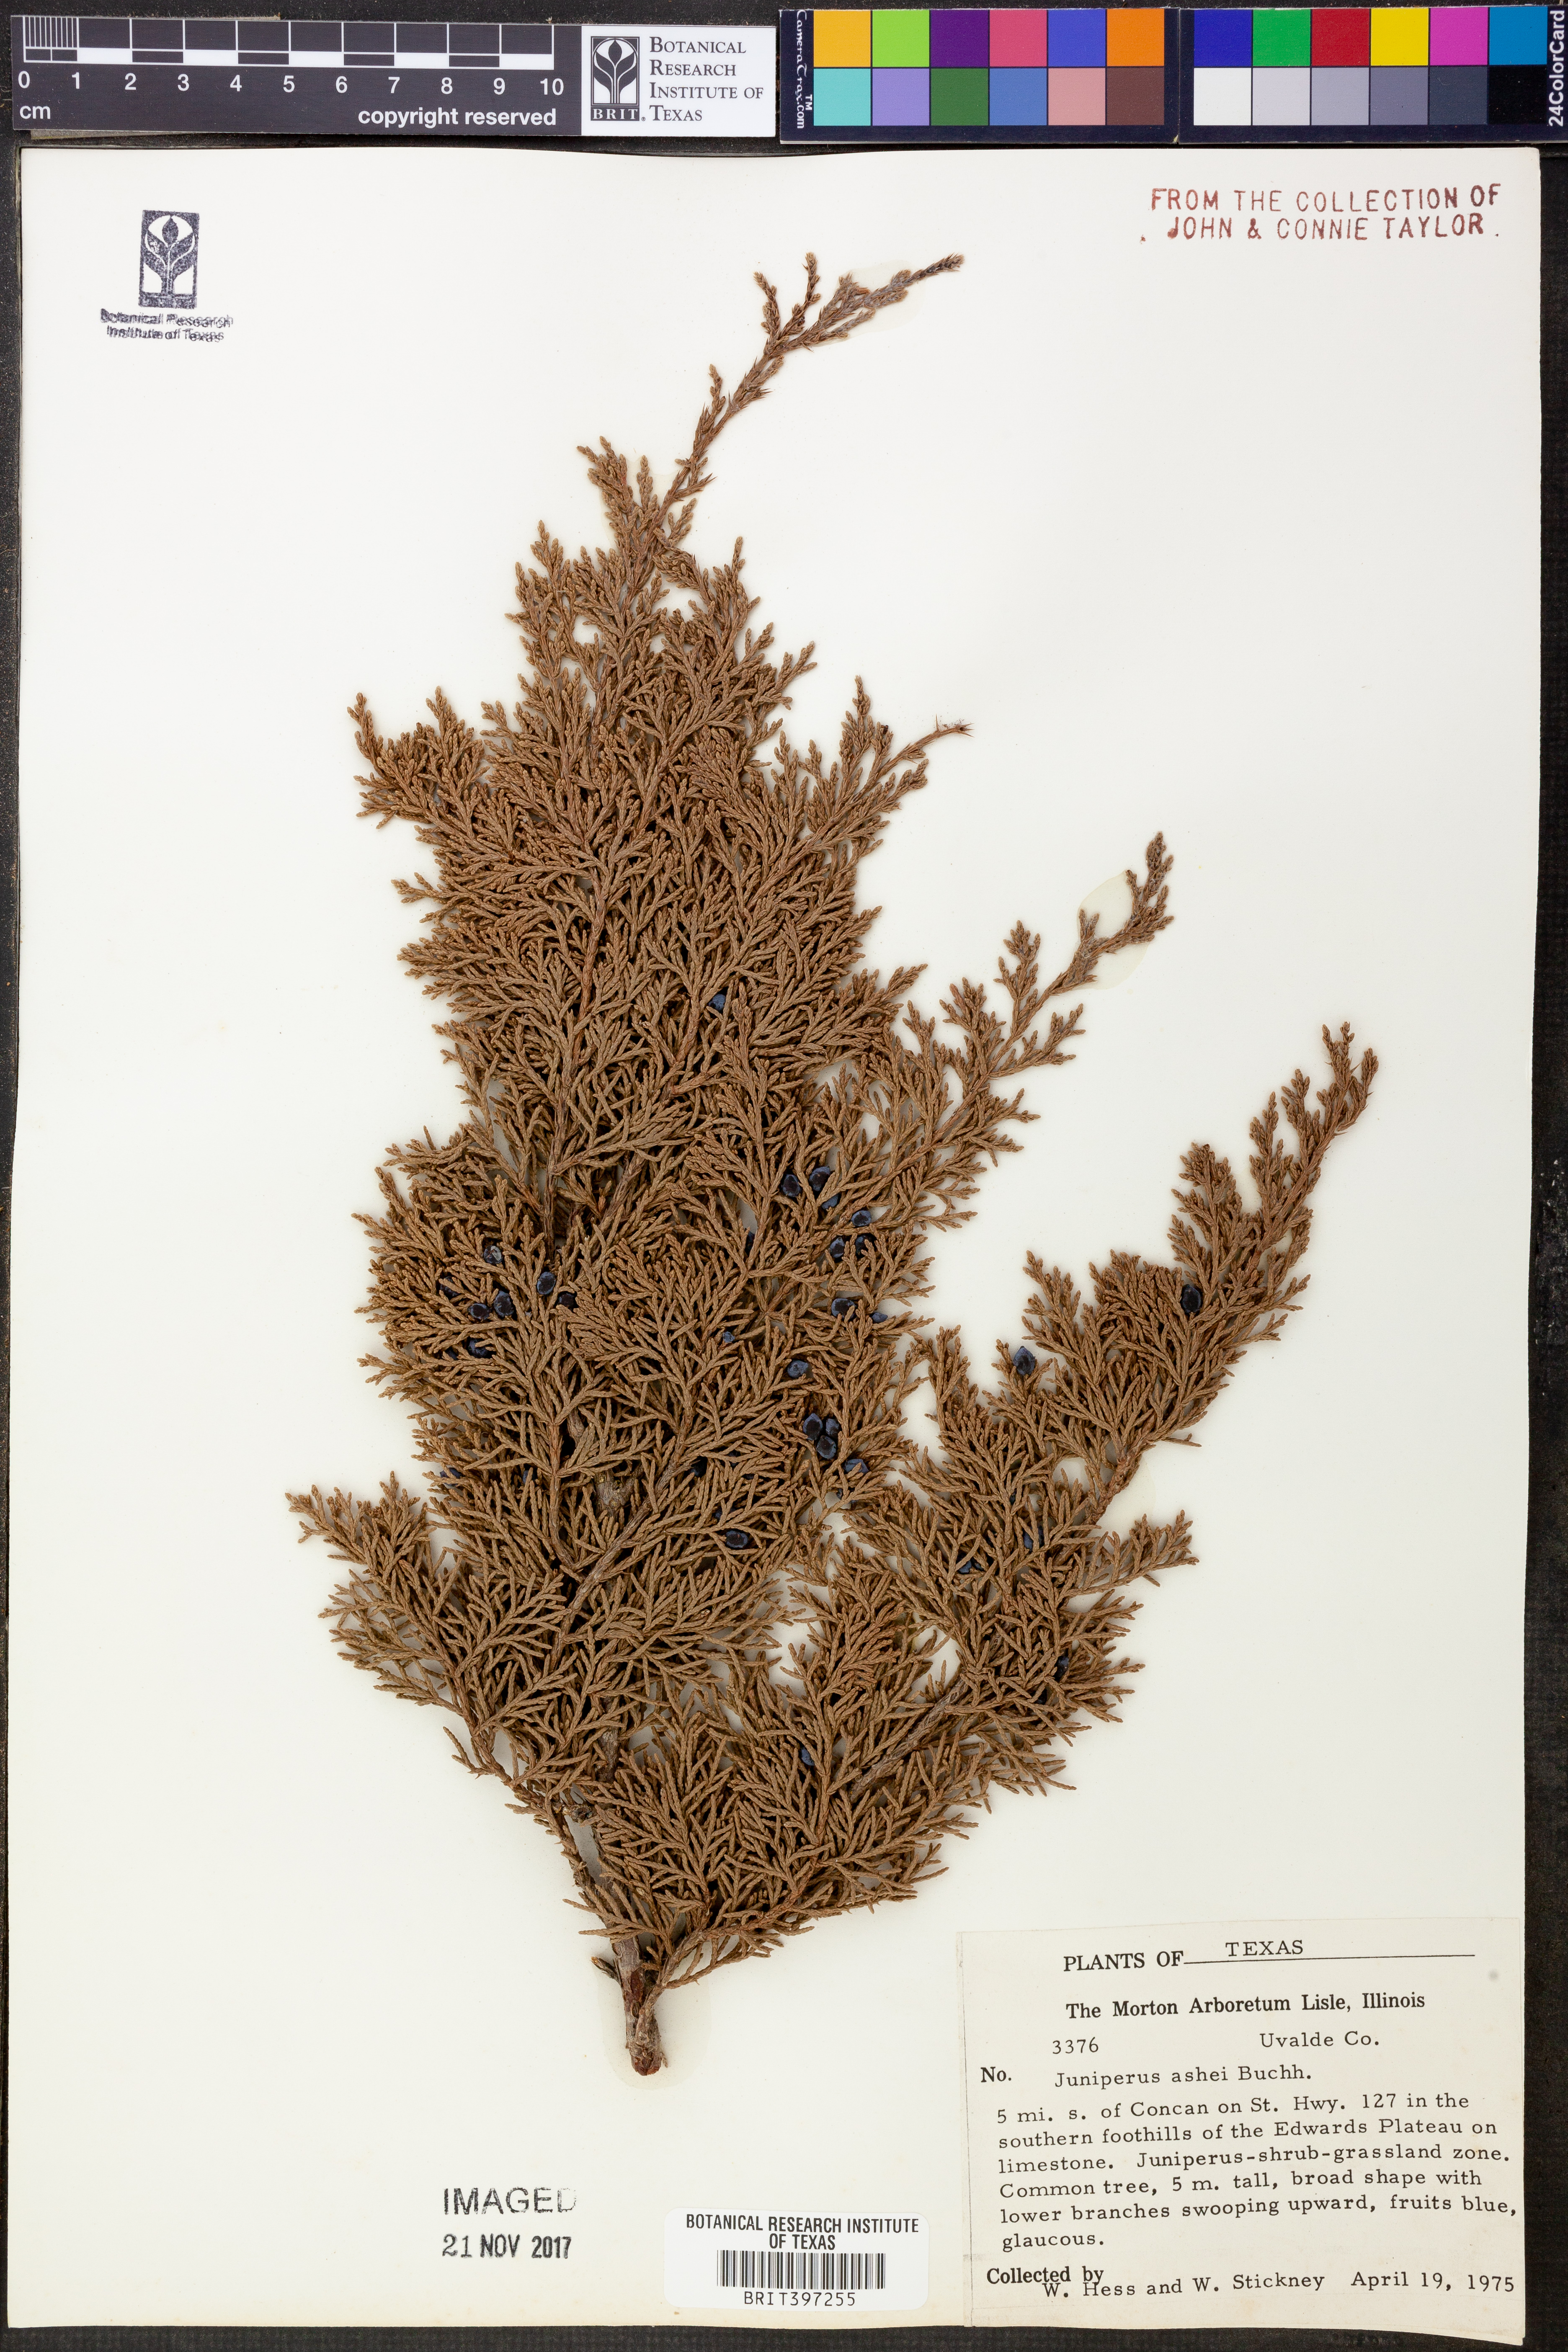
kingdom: Plantae
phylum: Tracheophyta
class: Pinopsida
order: Pinales
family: Cupressaceae
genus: Juniperus
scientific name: Juniperus ashei
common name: Mexican juniper
